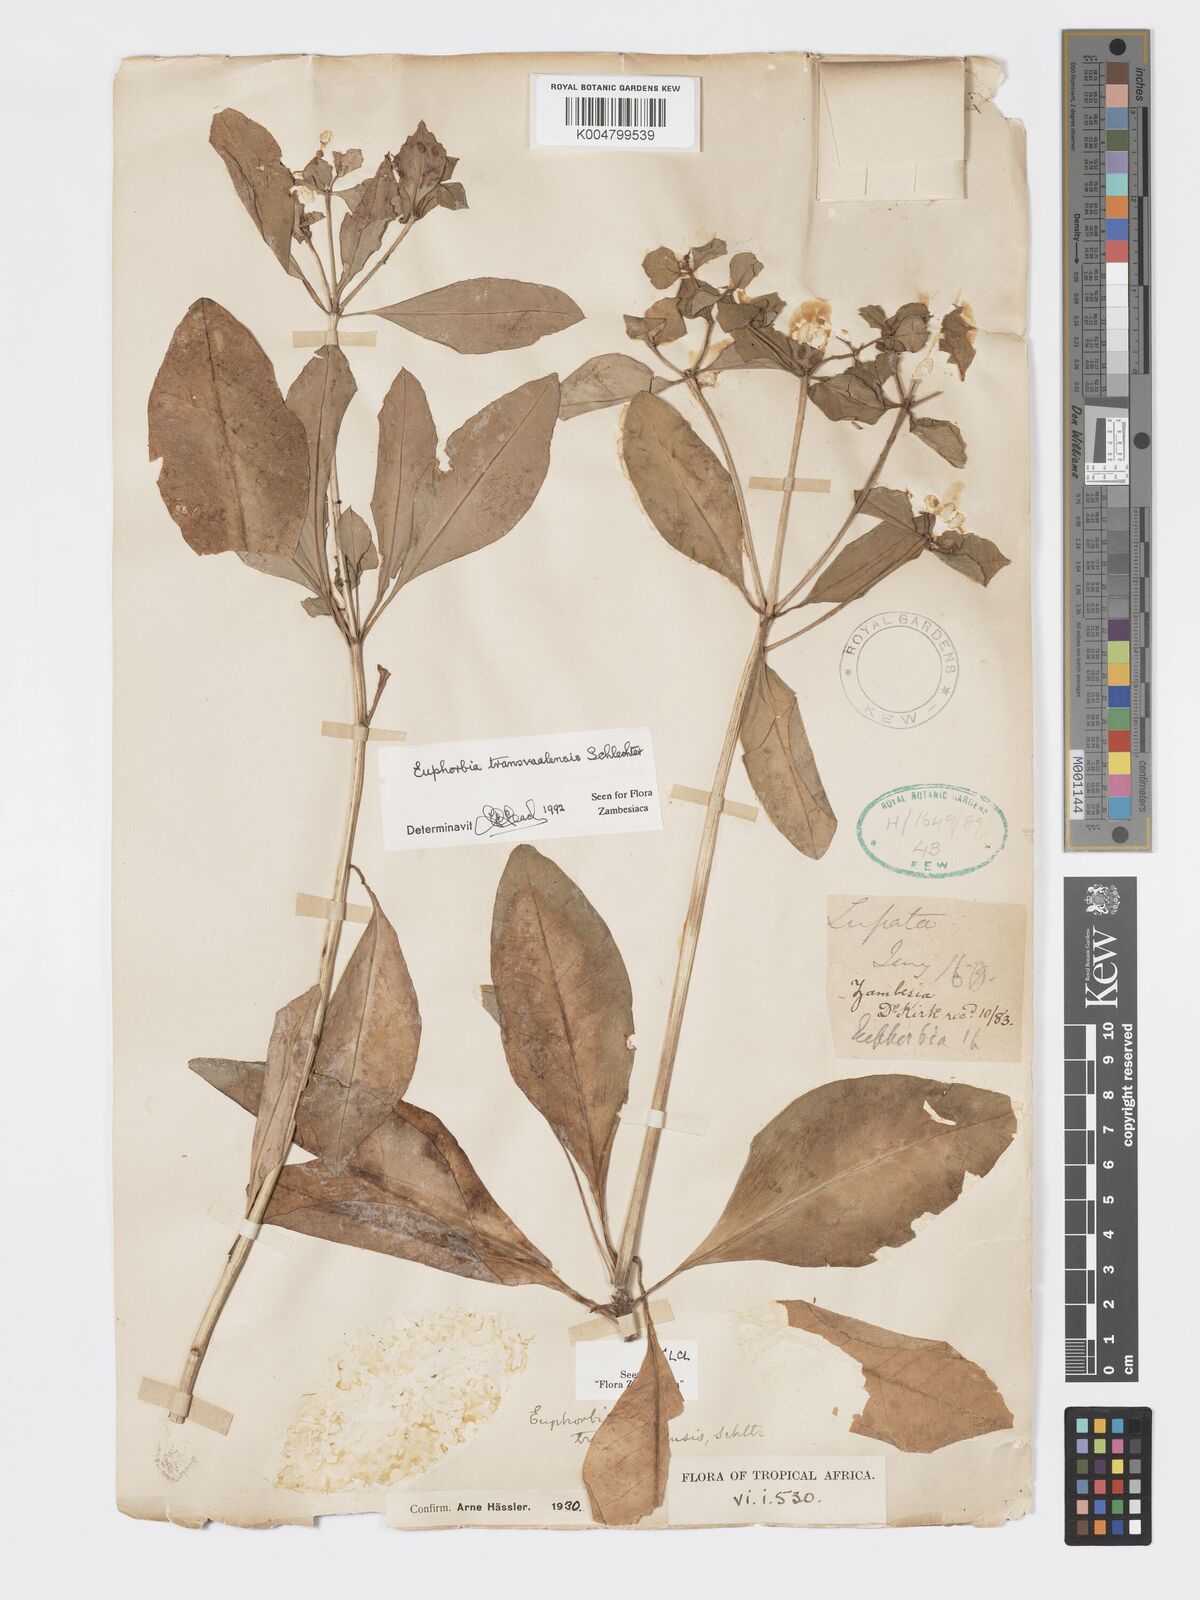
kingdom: Plantae
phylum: Tracheophyta
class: Magnoliopsida
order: Malpighiales
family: Euphorbiaceae
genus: Euphorbia
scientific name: Euphorbia transvaalensis
